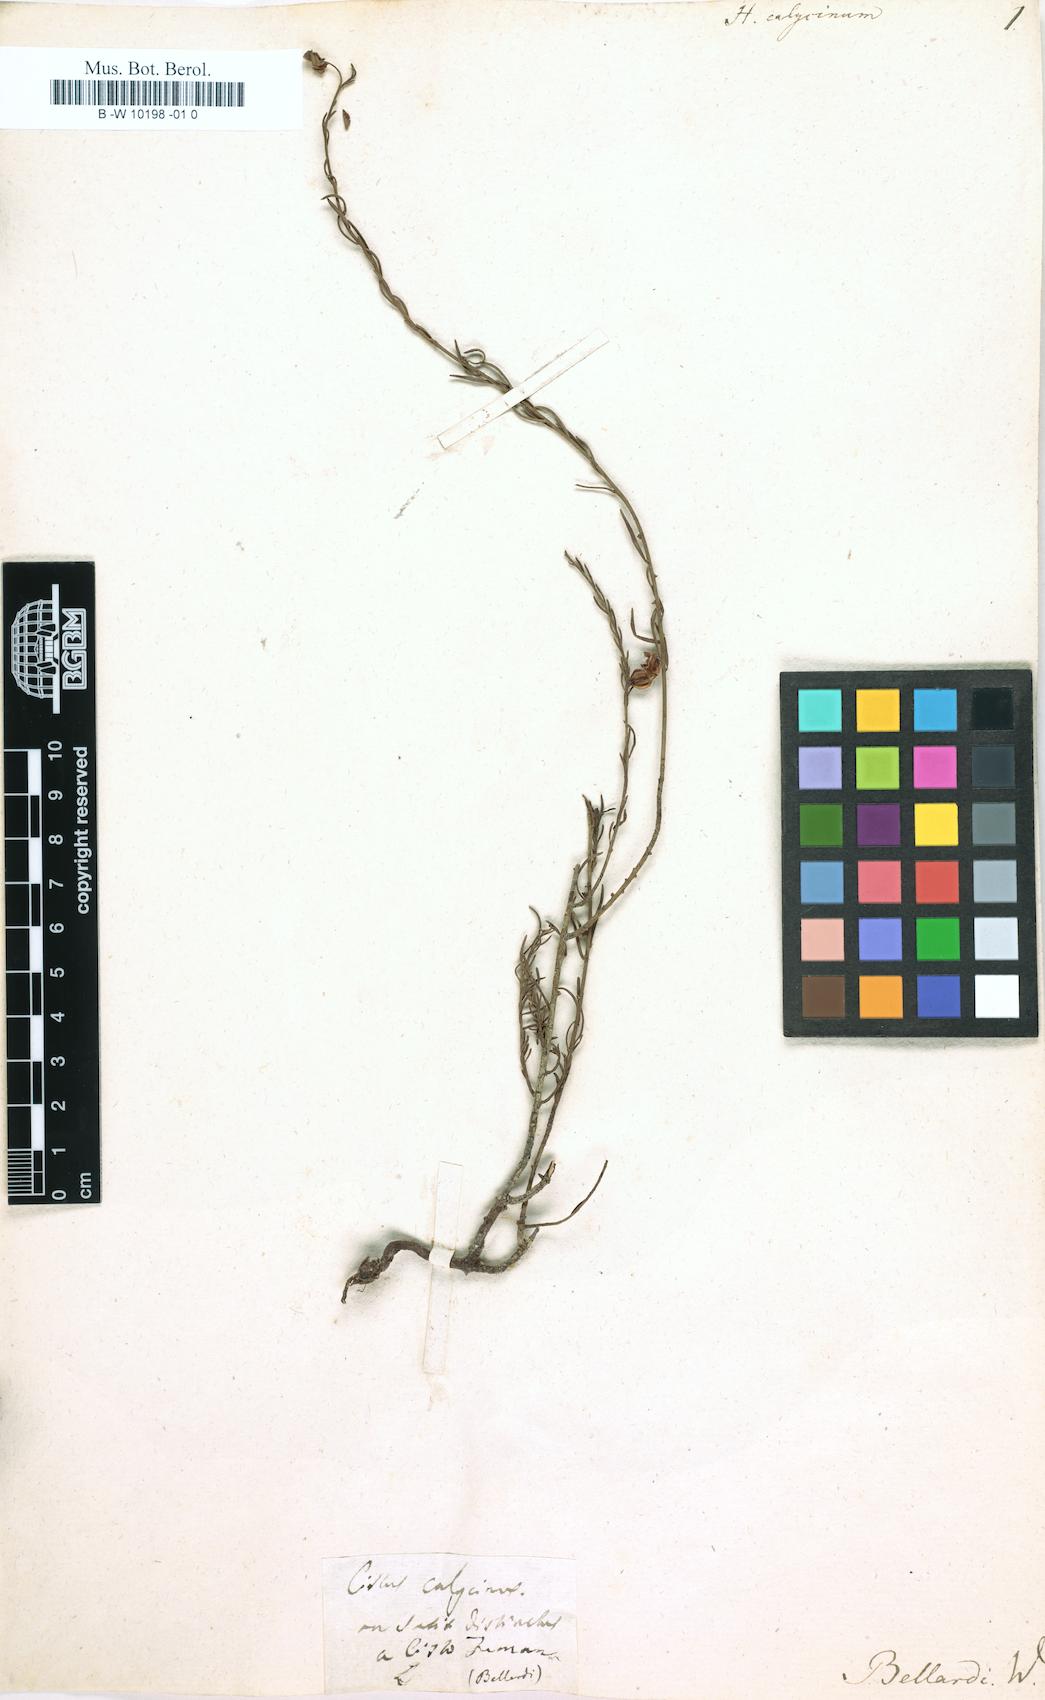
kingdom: Plantae
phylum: Tracheophyta
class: Magnoliopsida
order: Malvales
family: Cistaceae
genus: Fumana
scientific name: Fumana
